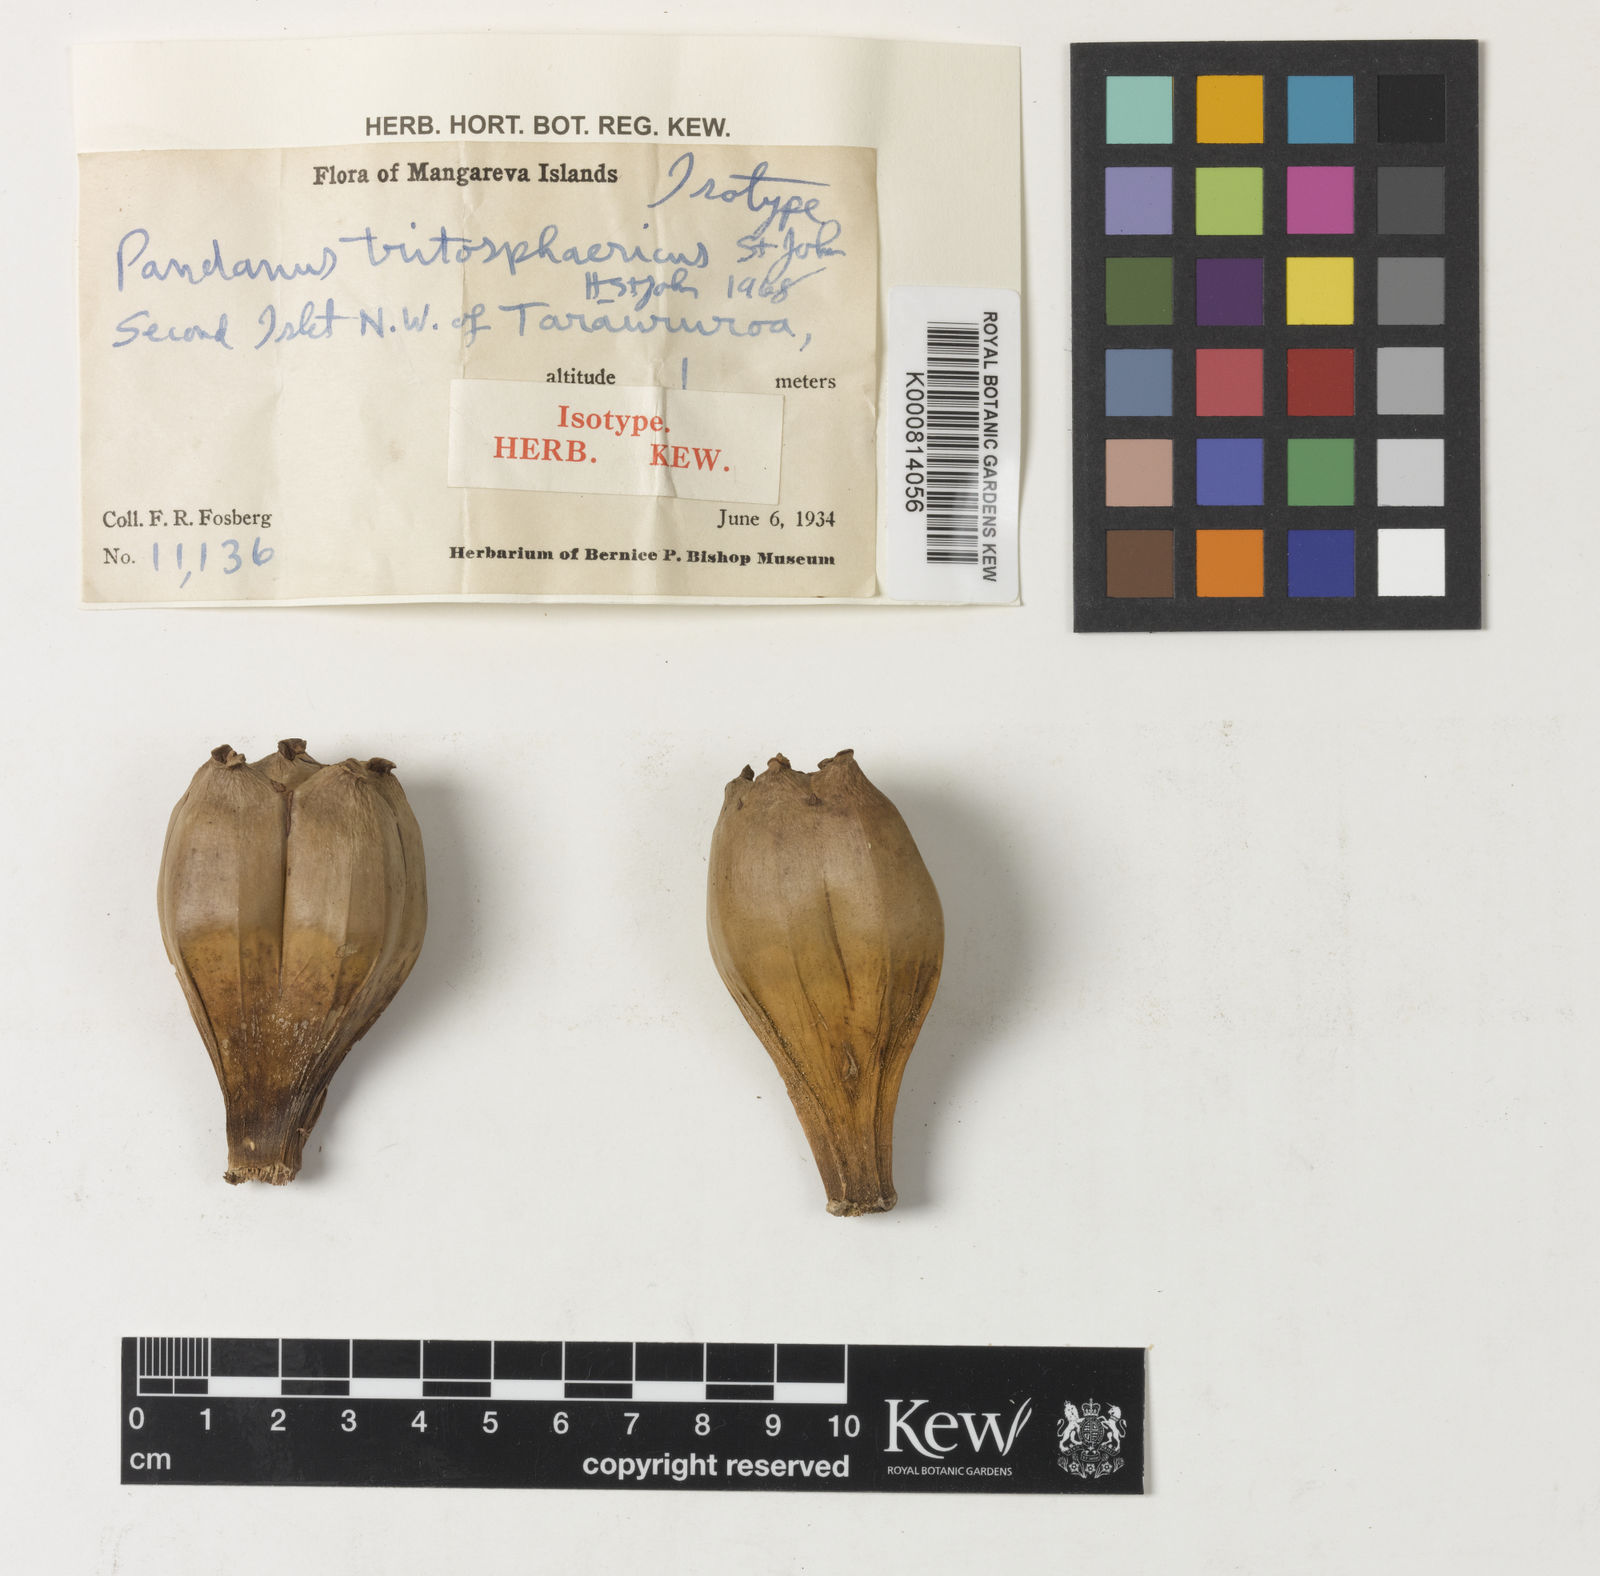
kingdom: Plantae
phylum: Tracheophyta
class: Liliopsida
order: Pandanales
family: Pandanaceae
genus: Pandanus
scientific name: Pandanus tectorius
